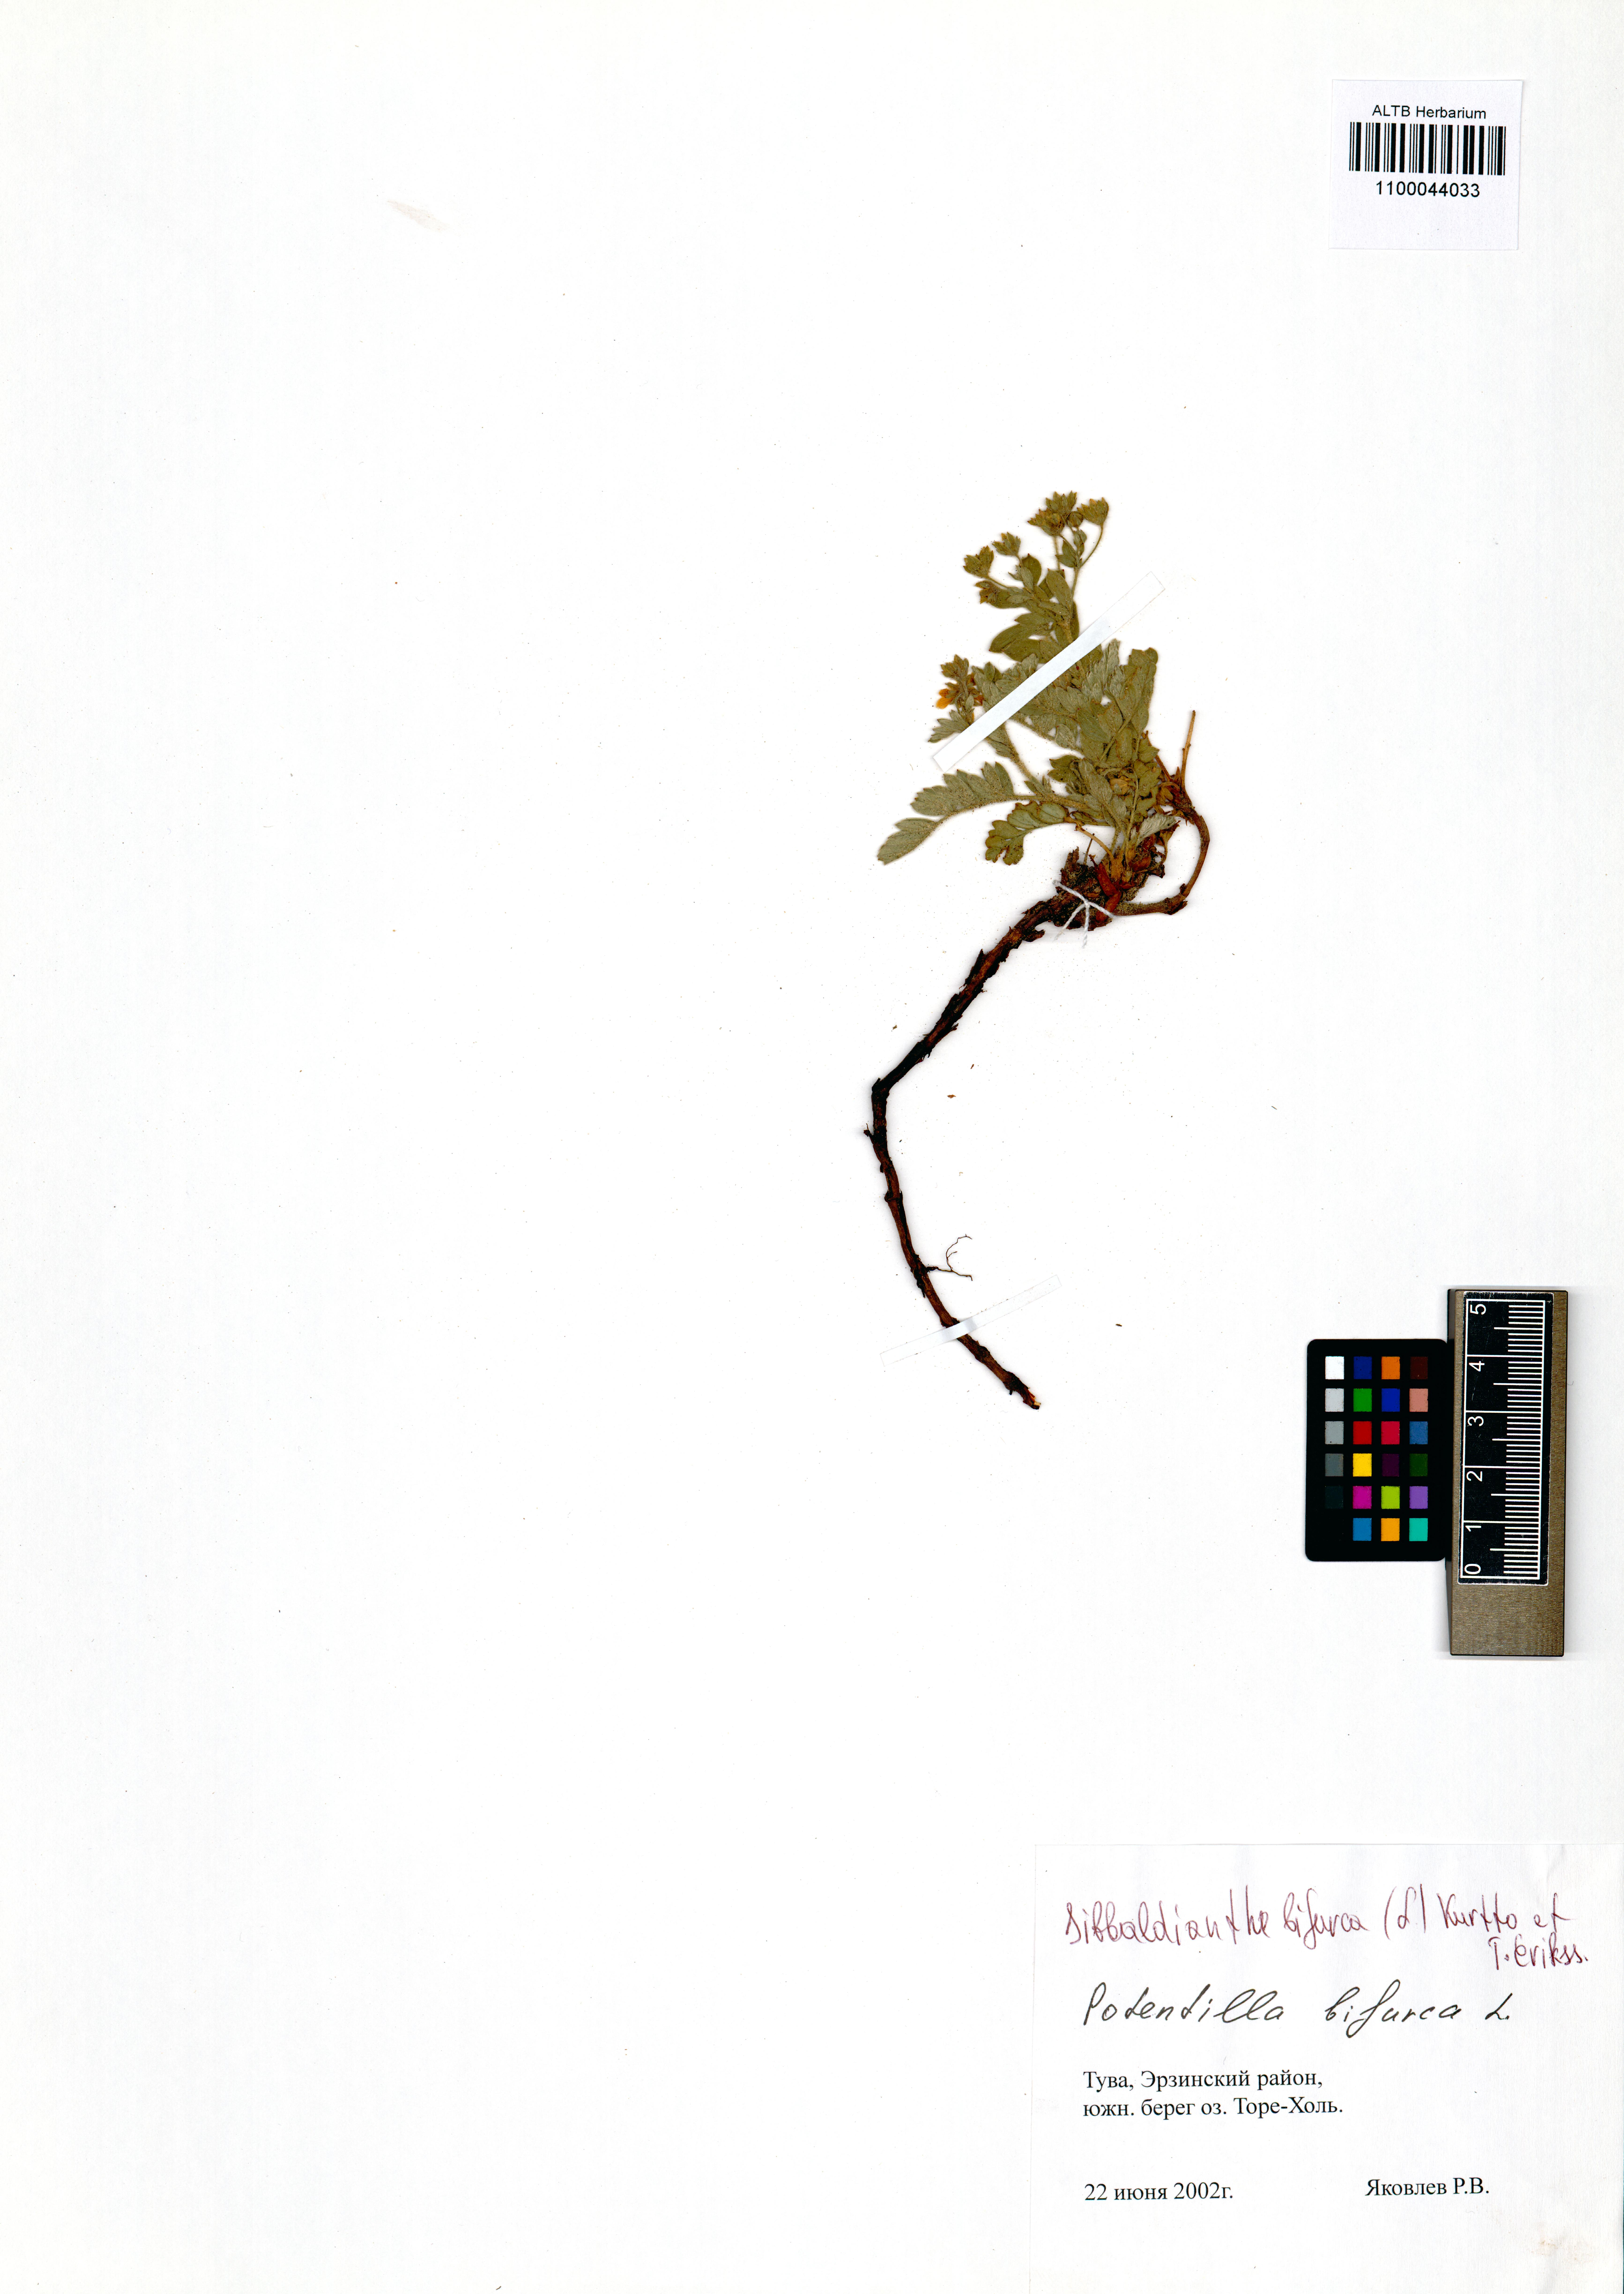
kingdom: Plantae
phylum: Tracheophyta
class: Magnoliopsida
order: Rosales
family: Rosaceae
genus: Sibbaldianthe
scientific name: Sibbaldianthe bifurca
